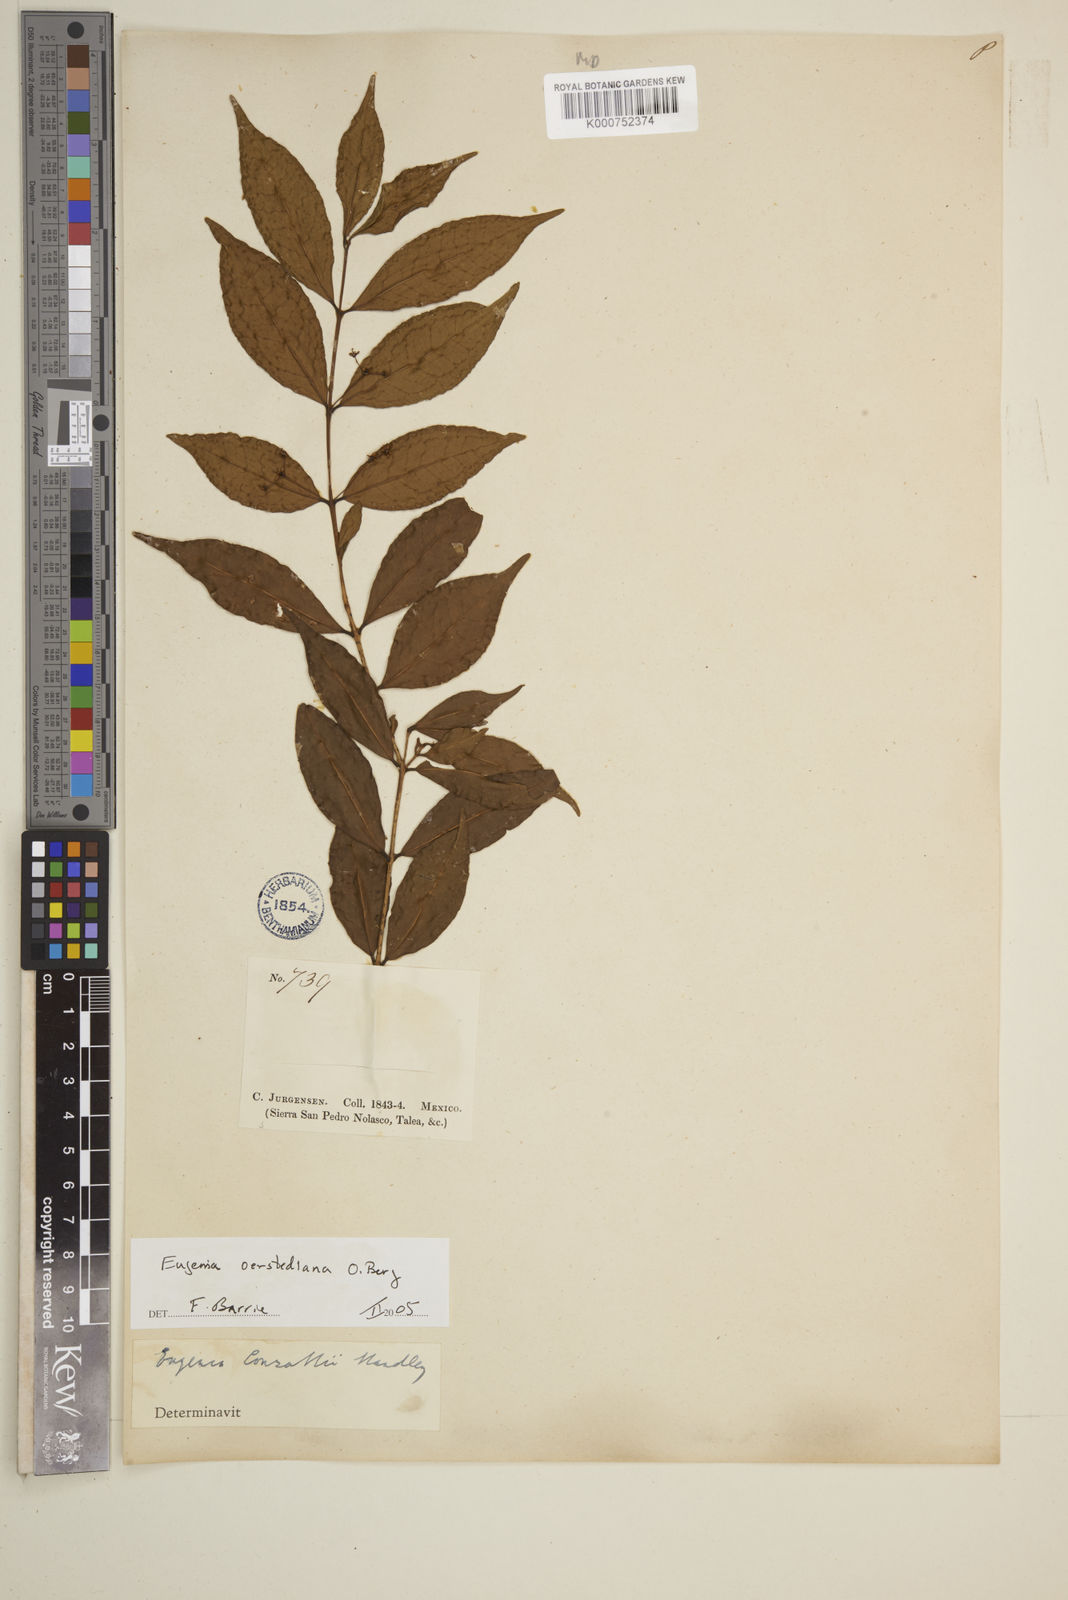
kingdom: Plantae
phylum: Tracheophyta
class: Magnoliopsida
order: Myrtales
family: Myrtaceae
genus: Eugenia
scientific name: Eugenia oerstediana
